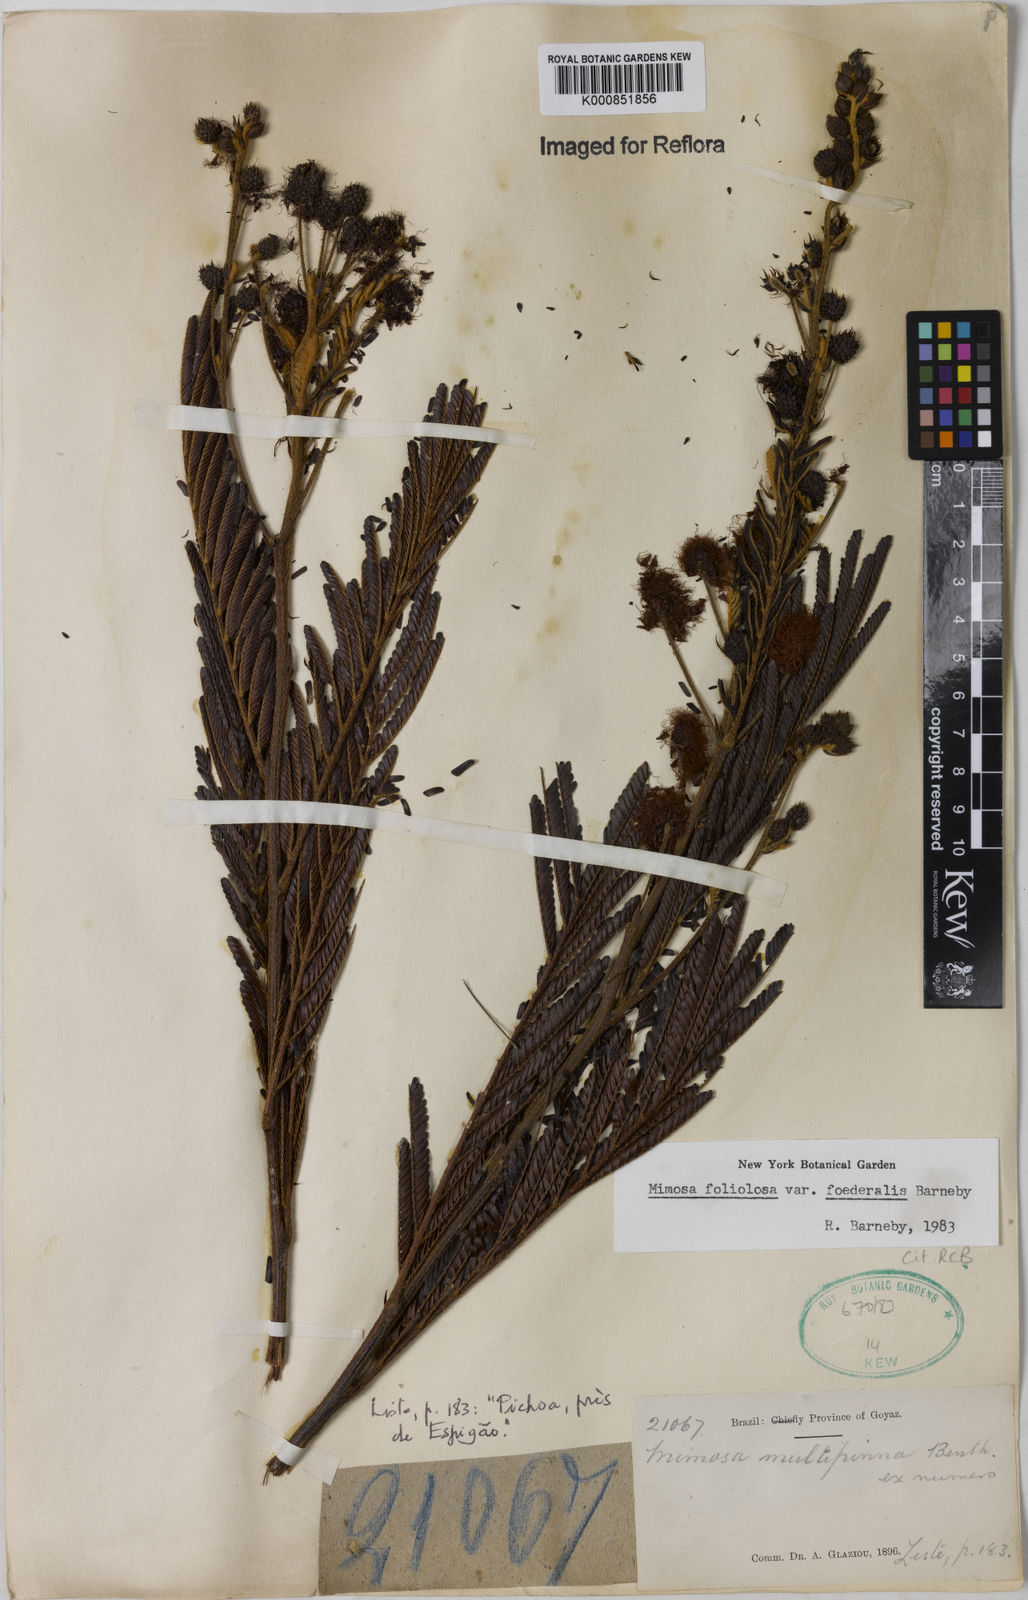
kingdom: Plantae
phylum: Tracheophyta
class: Magnoliopsida
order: Fabales
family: Fabaceae
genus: Mimosa
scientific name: Mimosa foliolosa
